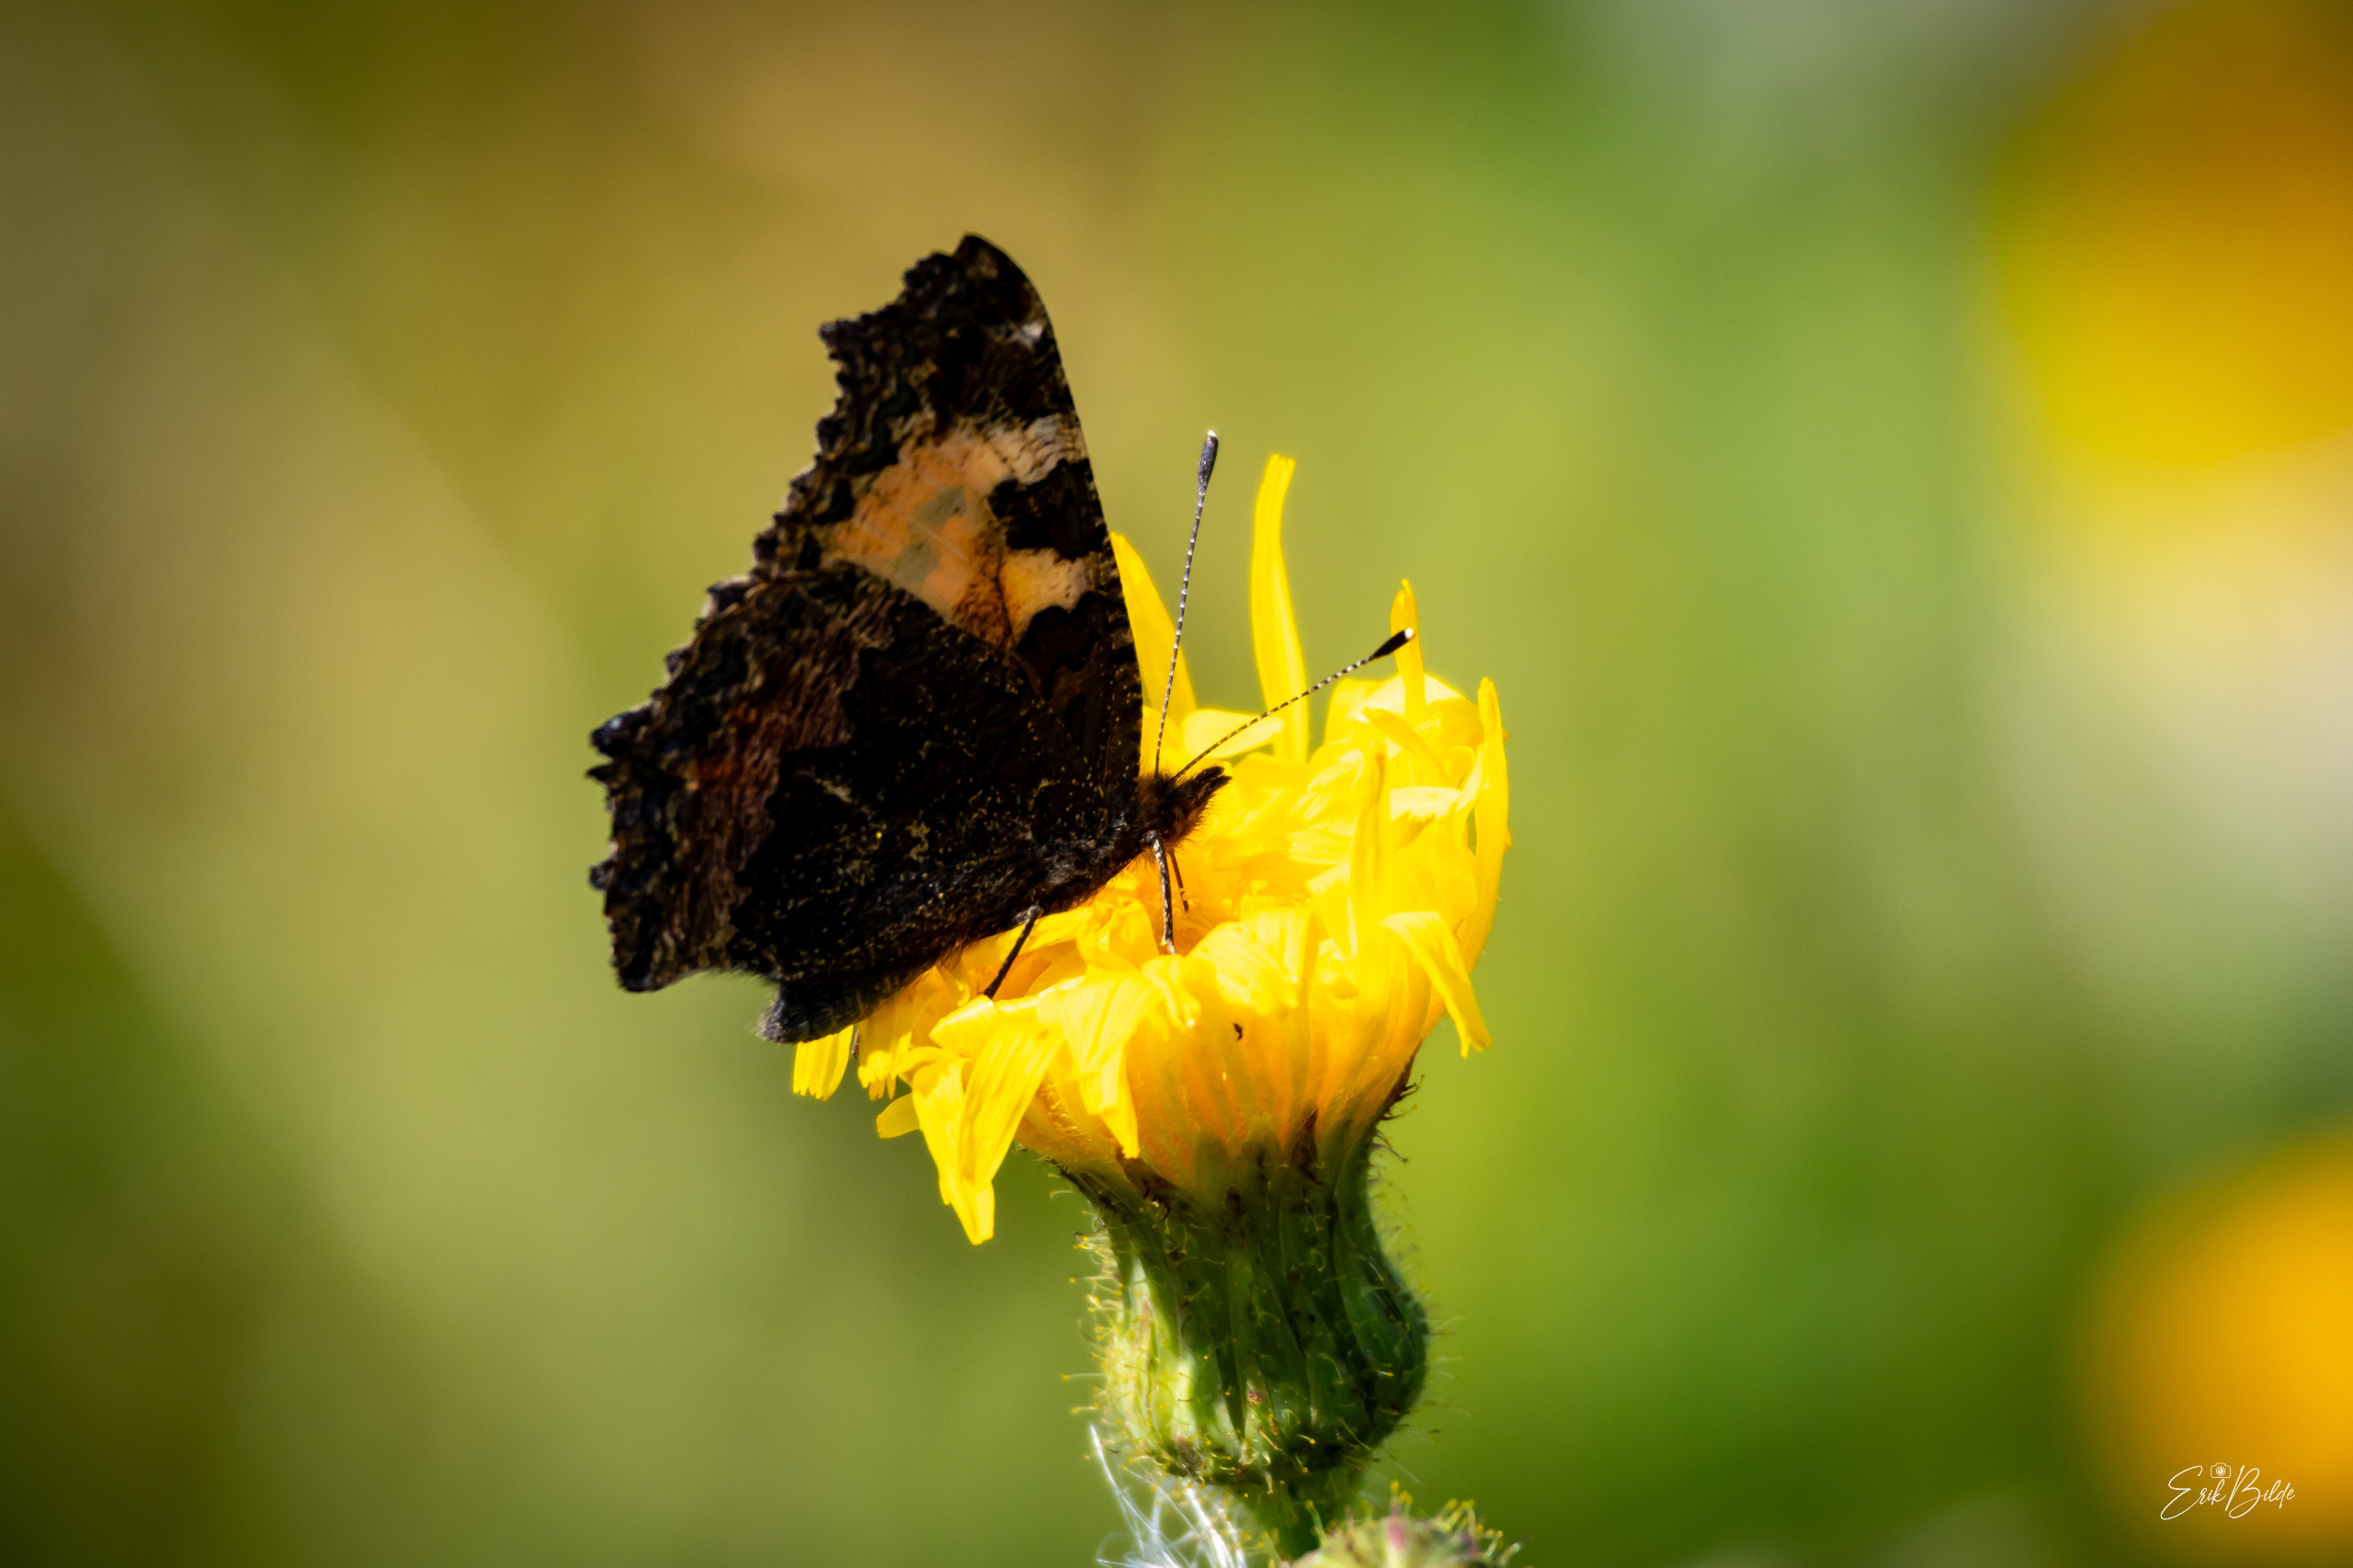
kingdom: Animalia
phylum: Arthropoda
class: Insecta
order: Lepidoptera
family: Nymphalidae
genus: Aglais
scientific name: Aglais urticae
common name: Nældens takvinge
